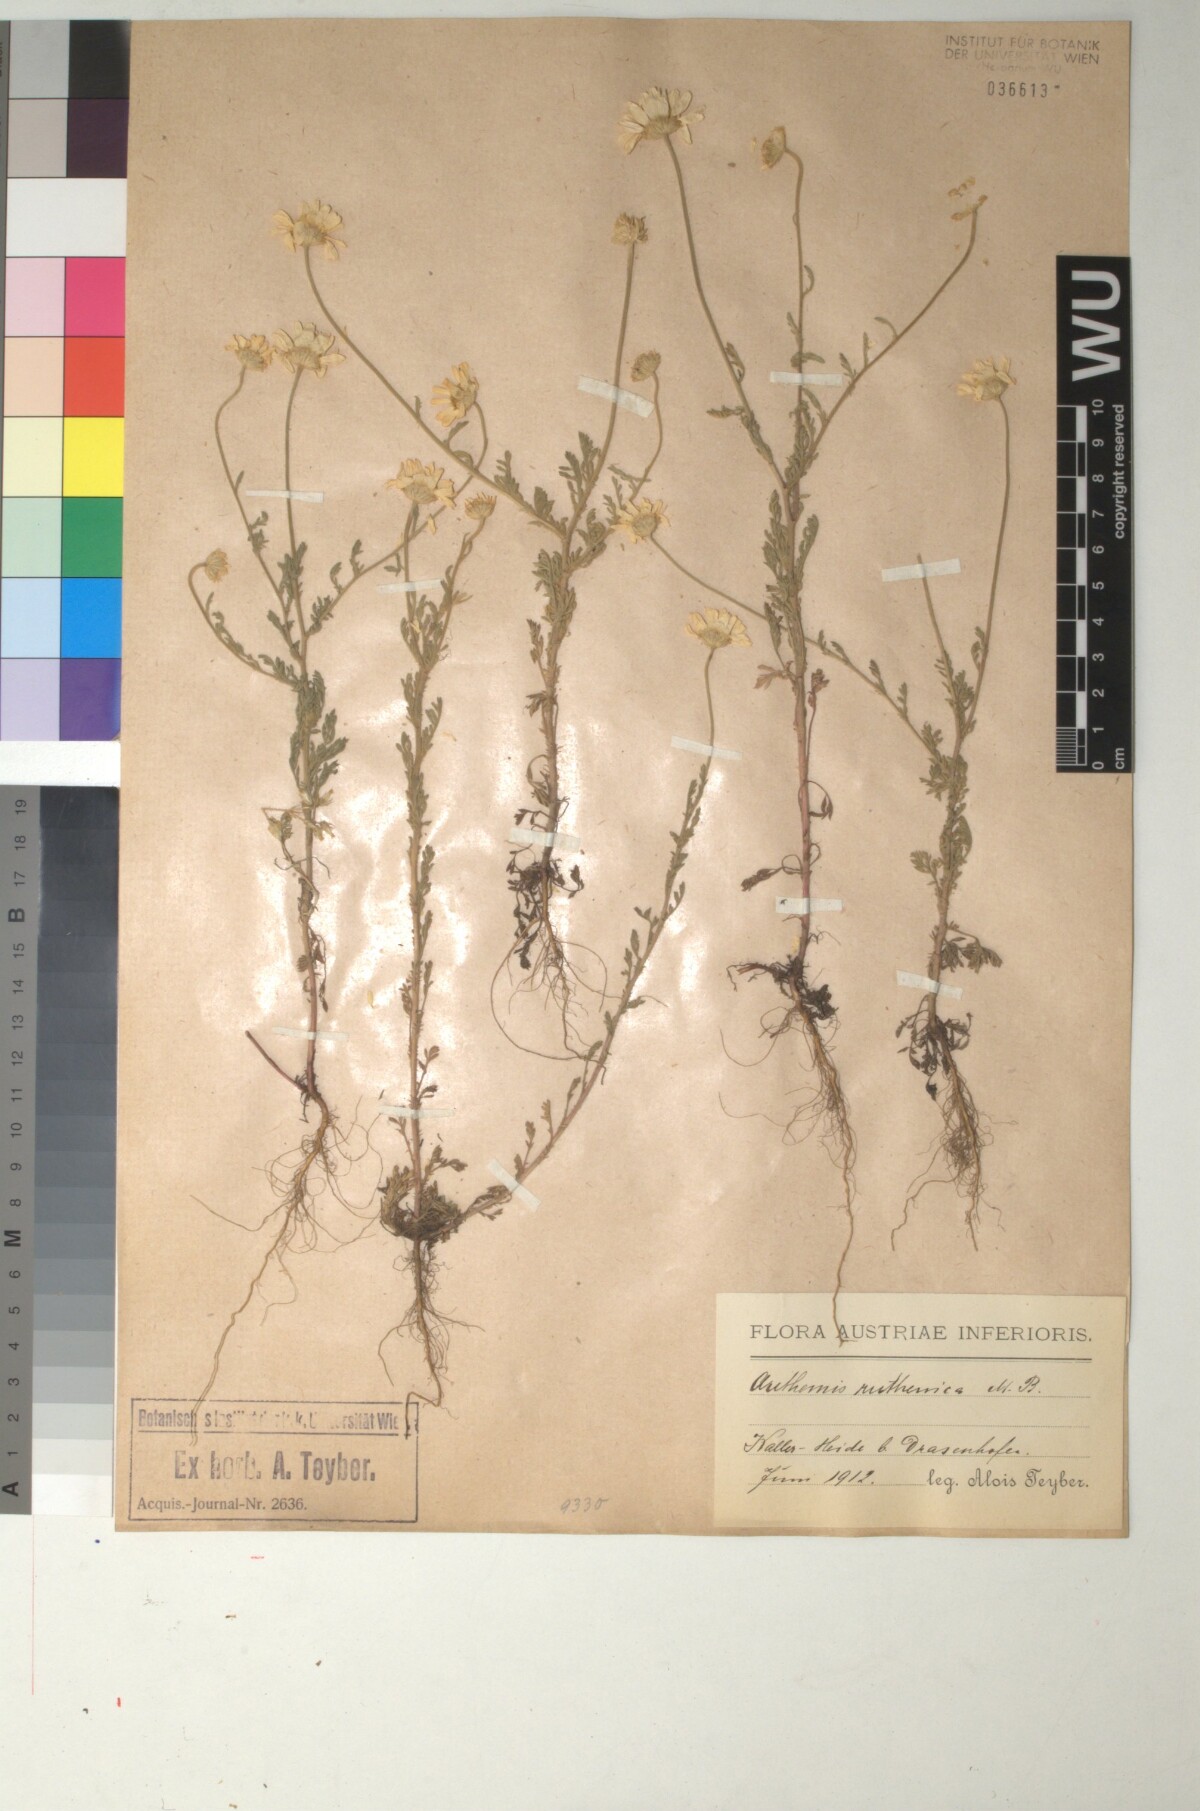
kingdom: Plantae
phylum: Tracheophyta
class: Magnoliopsida
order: Asterales
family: Asteraceae
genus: Anthemis
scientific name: Anthemis ruthenica
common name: Eastern chamomile
